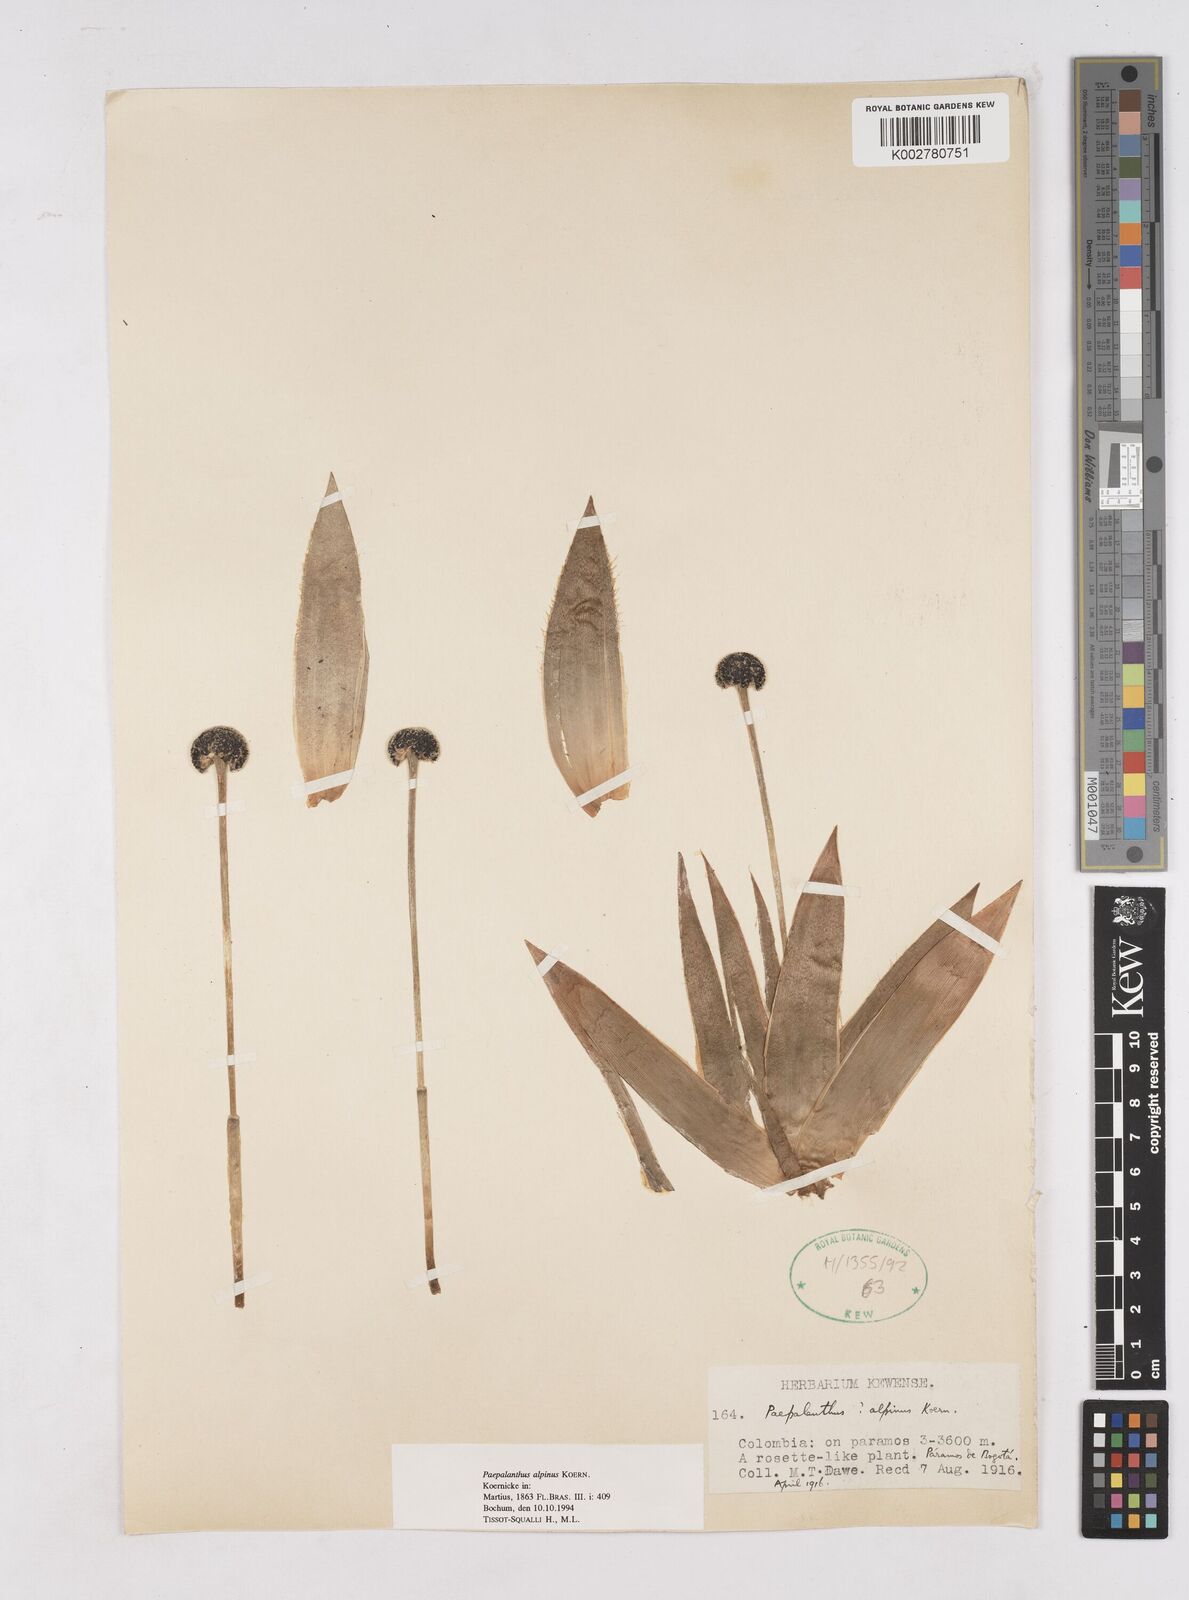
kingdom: Plantae
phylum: Tracheophyta
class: Liliopsida
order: Poales
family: Eriocaulaceae
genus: Paepalanthus
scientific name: Paepalanthus alpinus
